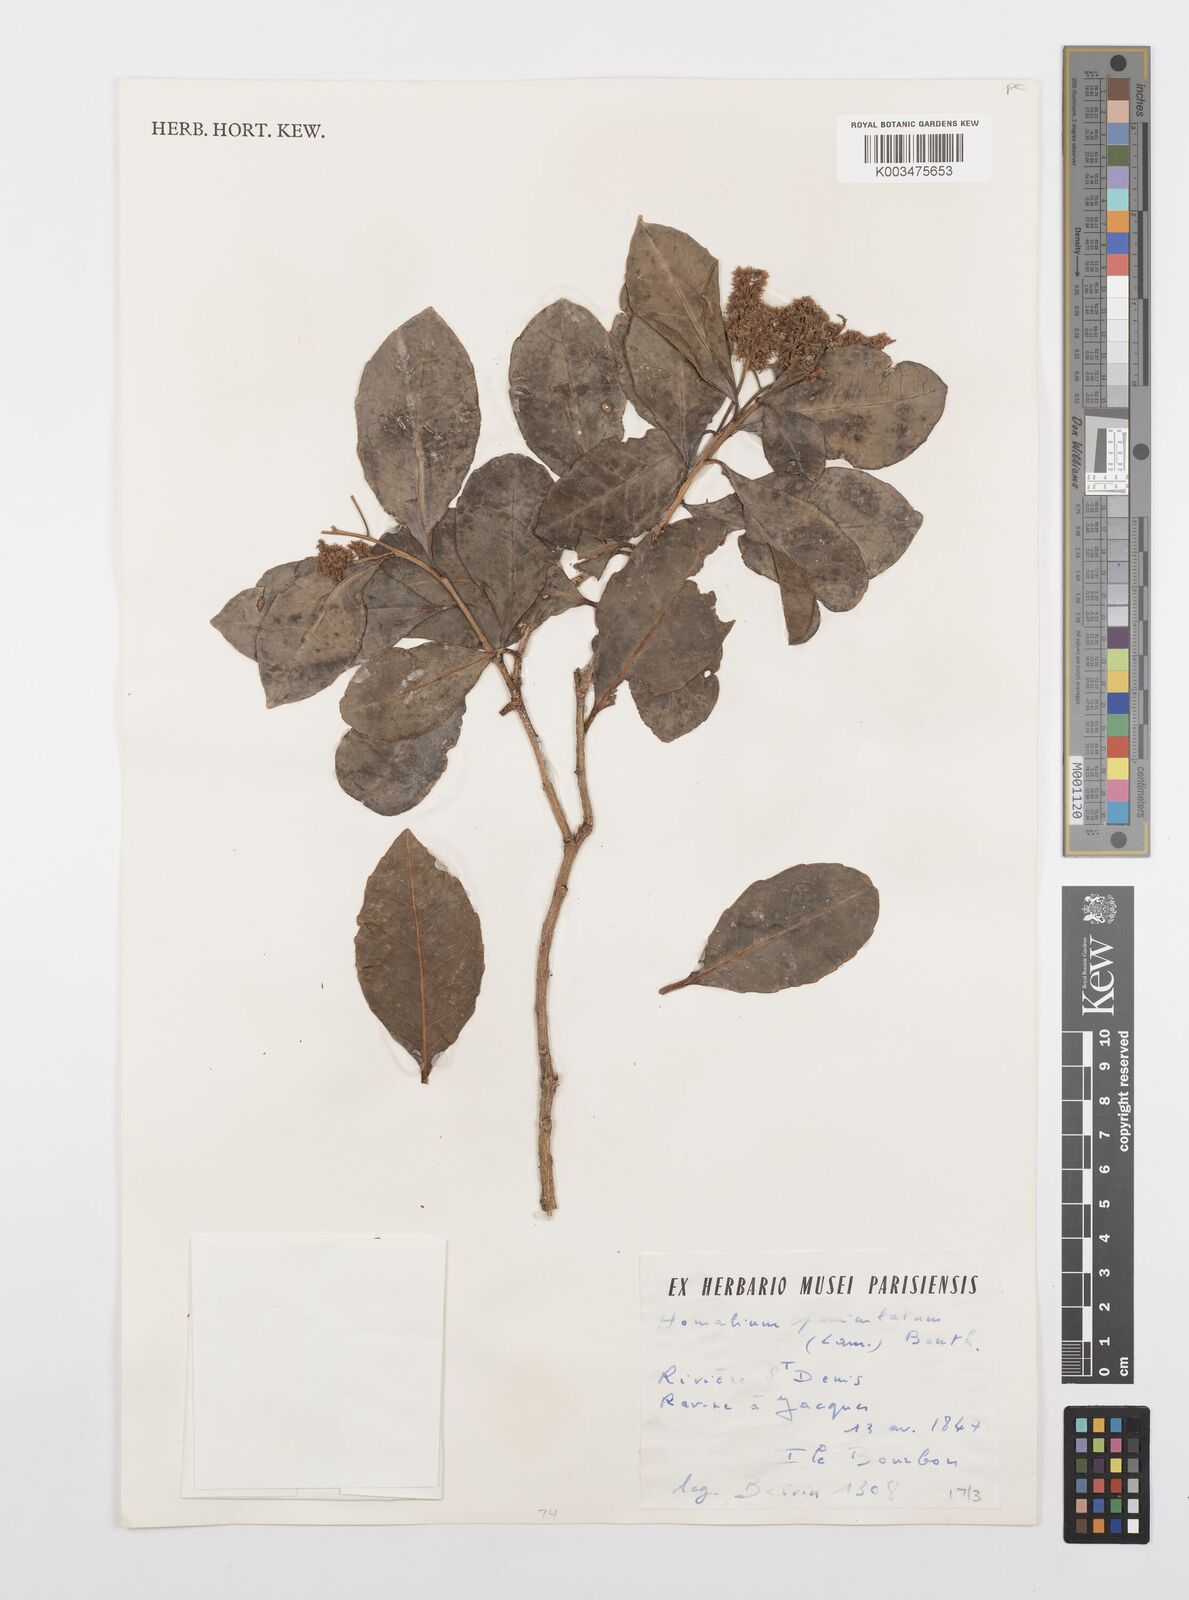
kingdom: Plantae
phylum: Tracheophyta
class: Magnoliopsida
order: Malpighiales
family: Salicaceae
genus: Homalium
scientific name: Homalium erianthum
